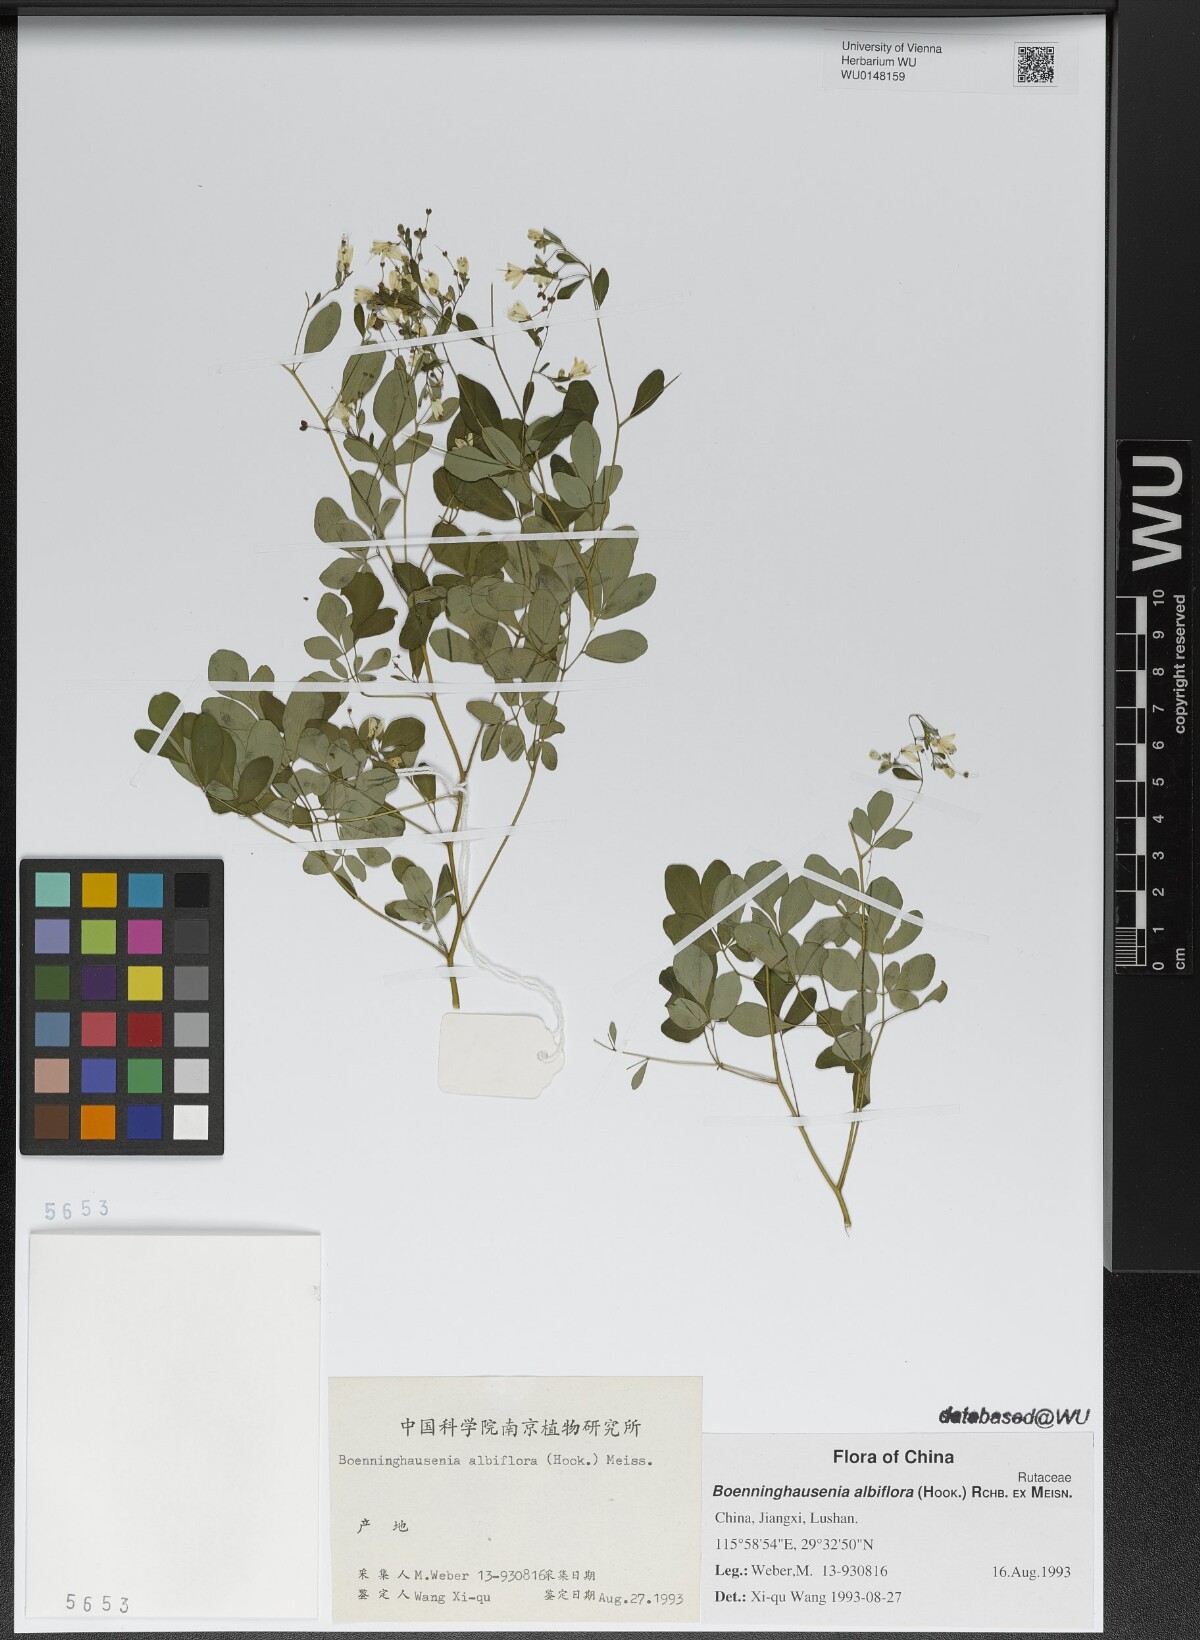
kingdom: Plantae
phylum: Tracheophyta
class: Magnoliopsida
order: Sapindales
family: Rutaceae
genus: Boenninghausenia
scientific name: Boenninghausenia albiflora
